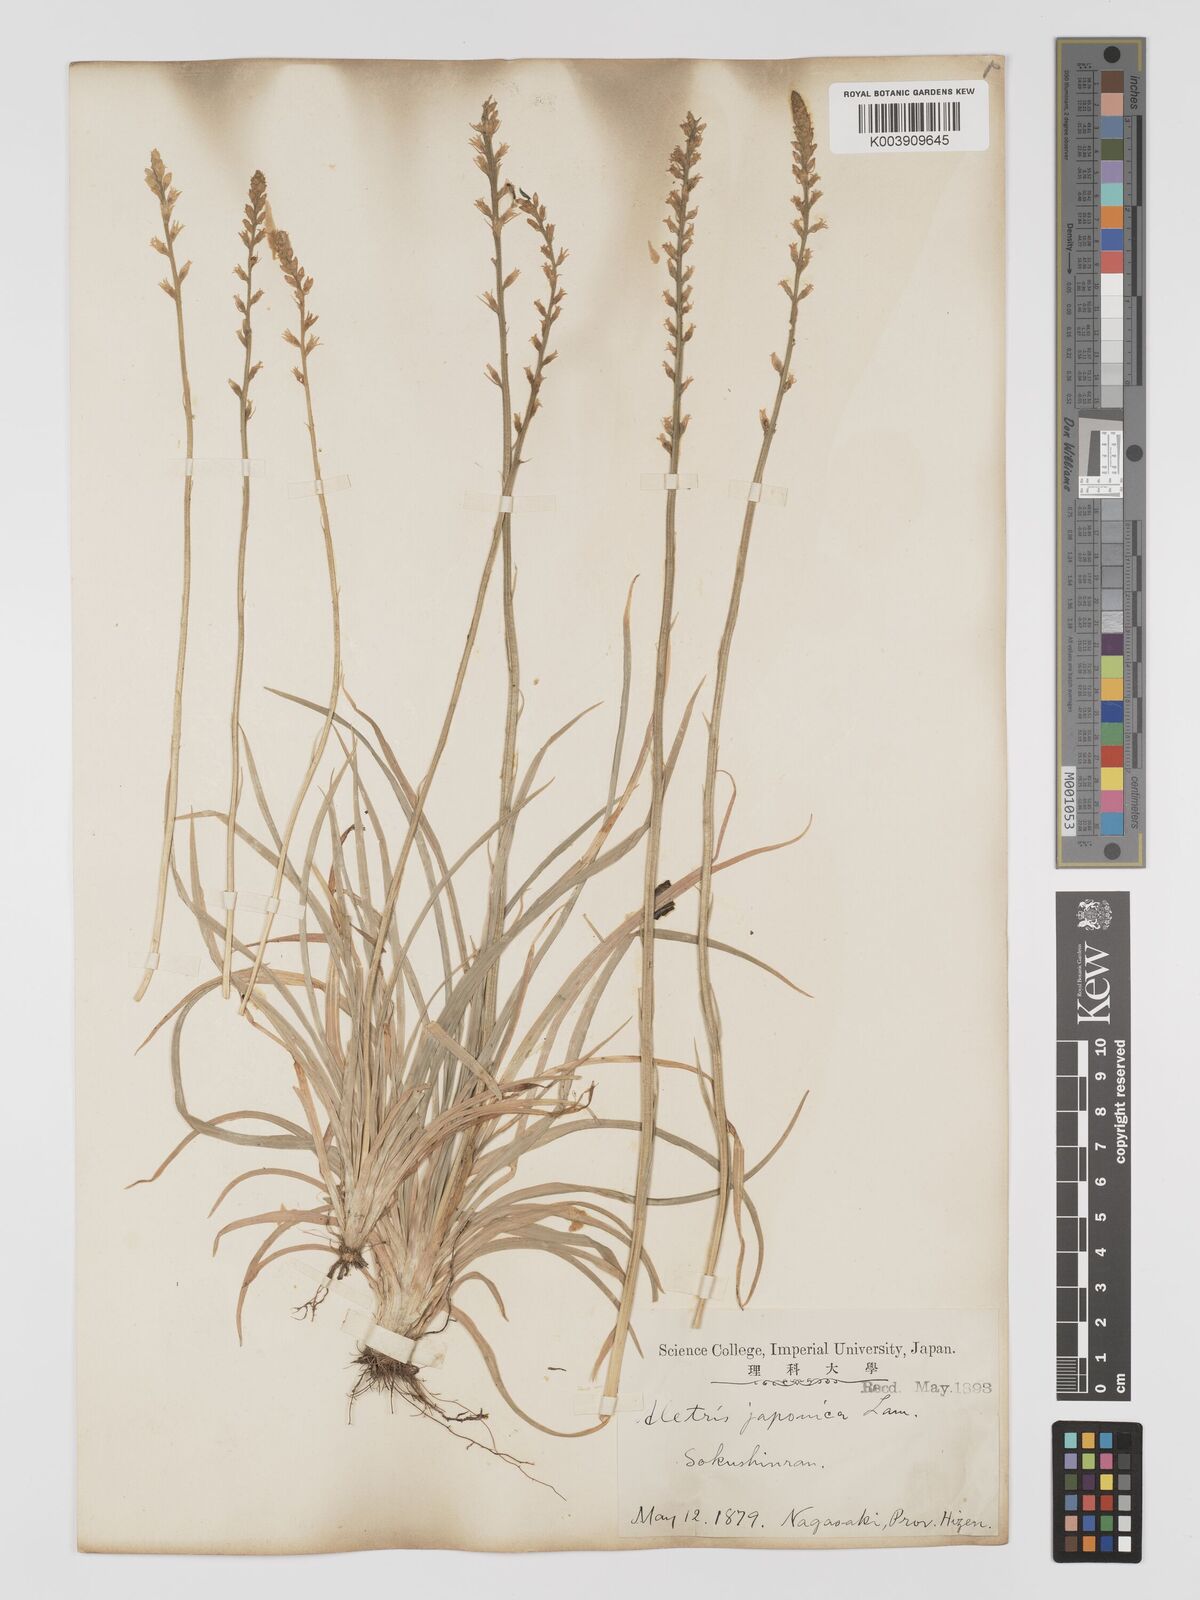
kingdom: Plantae
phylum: Tracheophyta
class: Liliopsida
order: Dioscoreales
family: Nartheciaceae
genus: Aletris
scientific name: Aletris spicata
